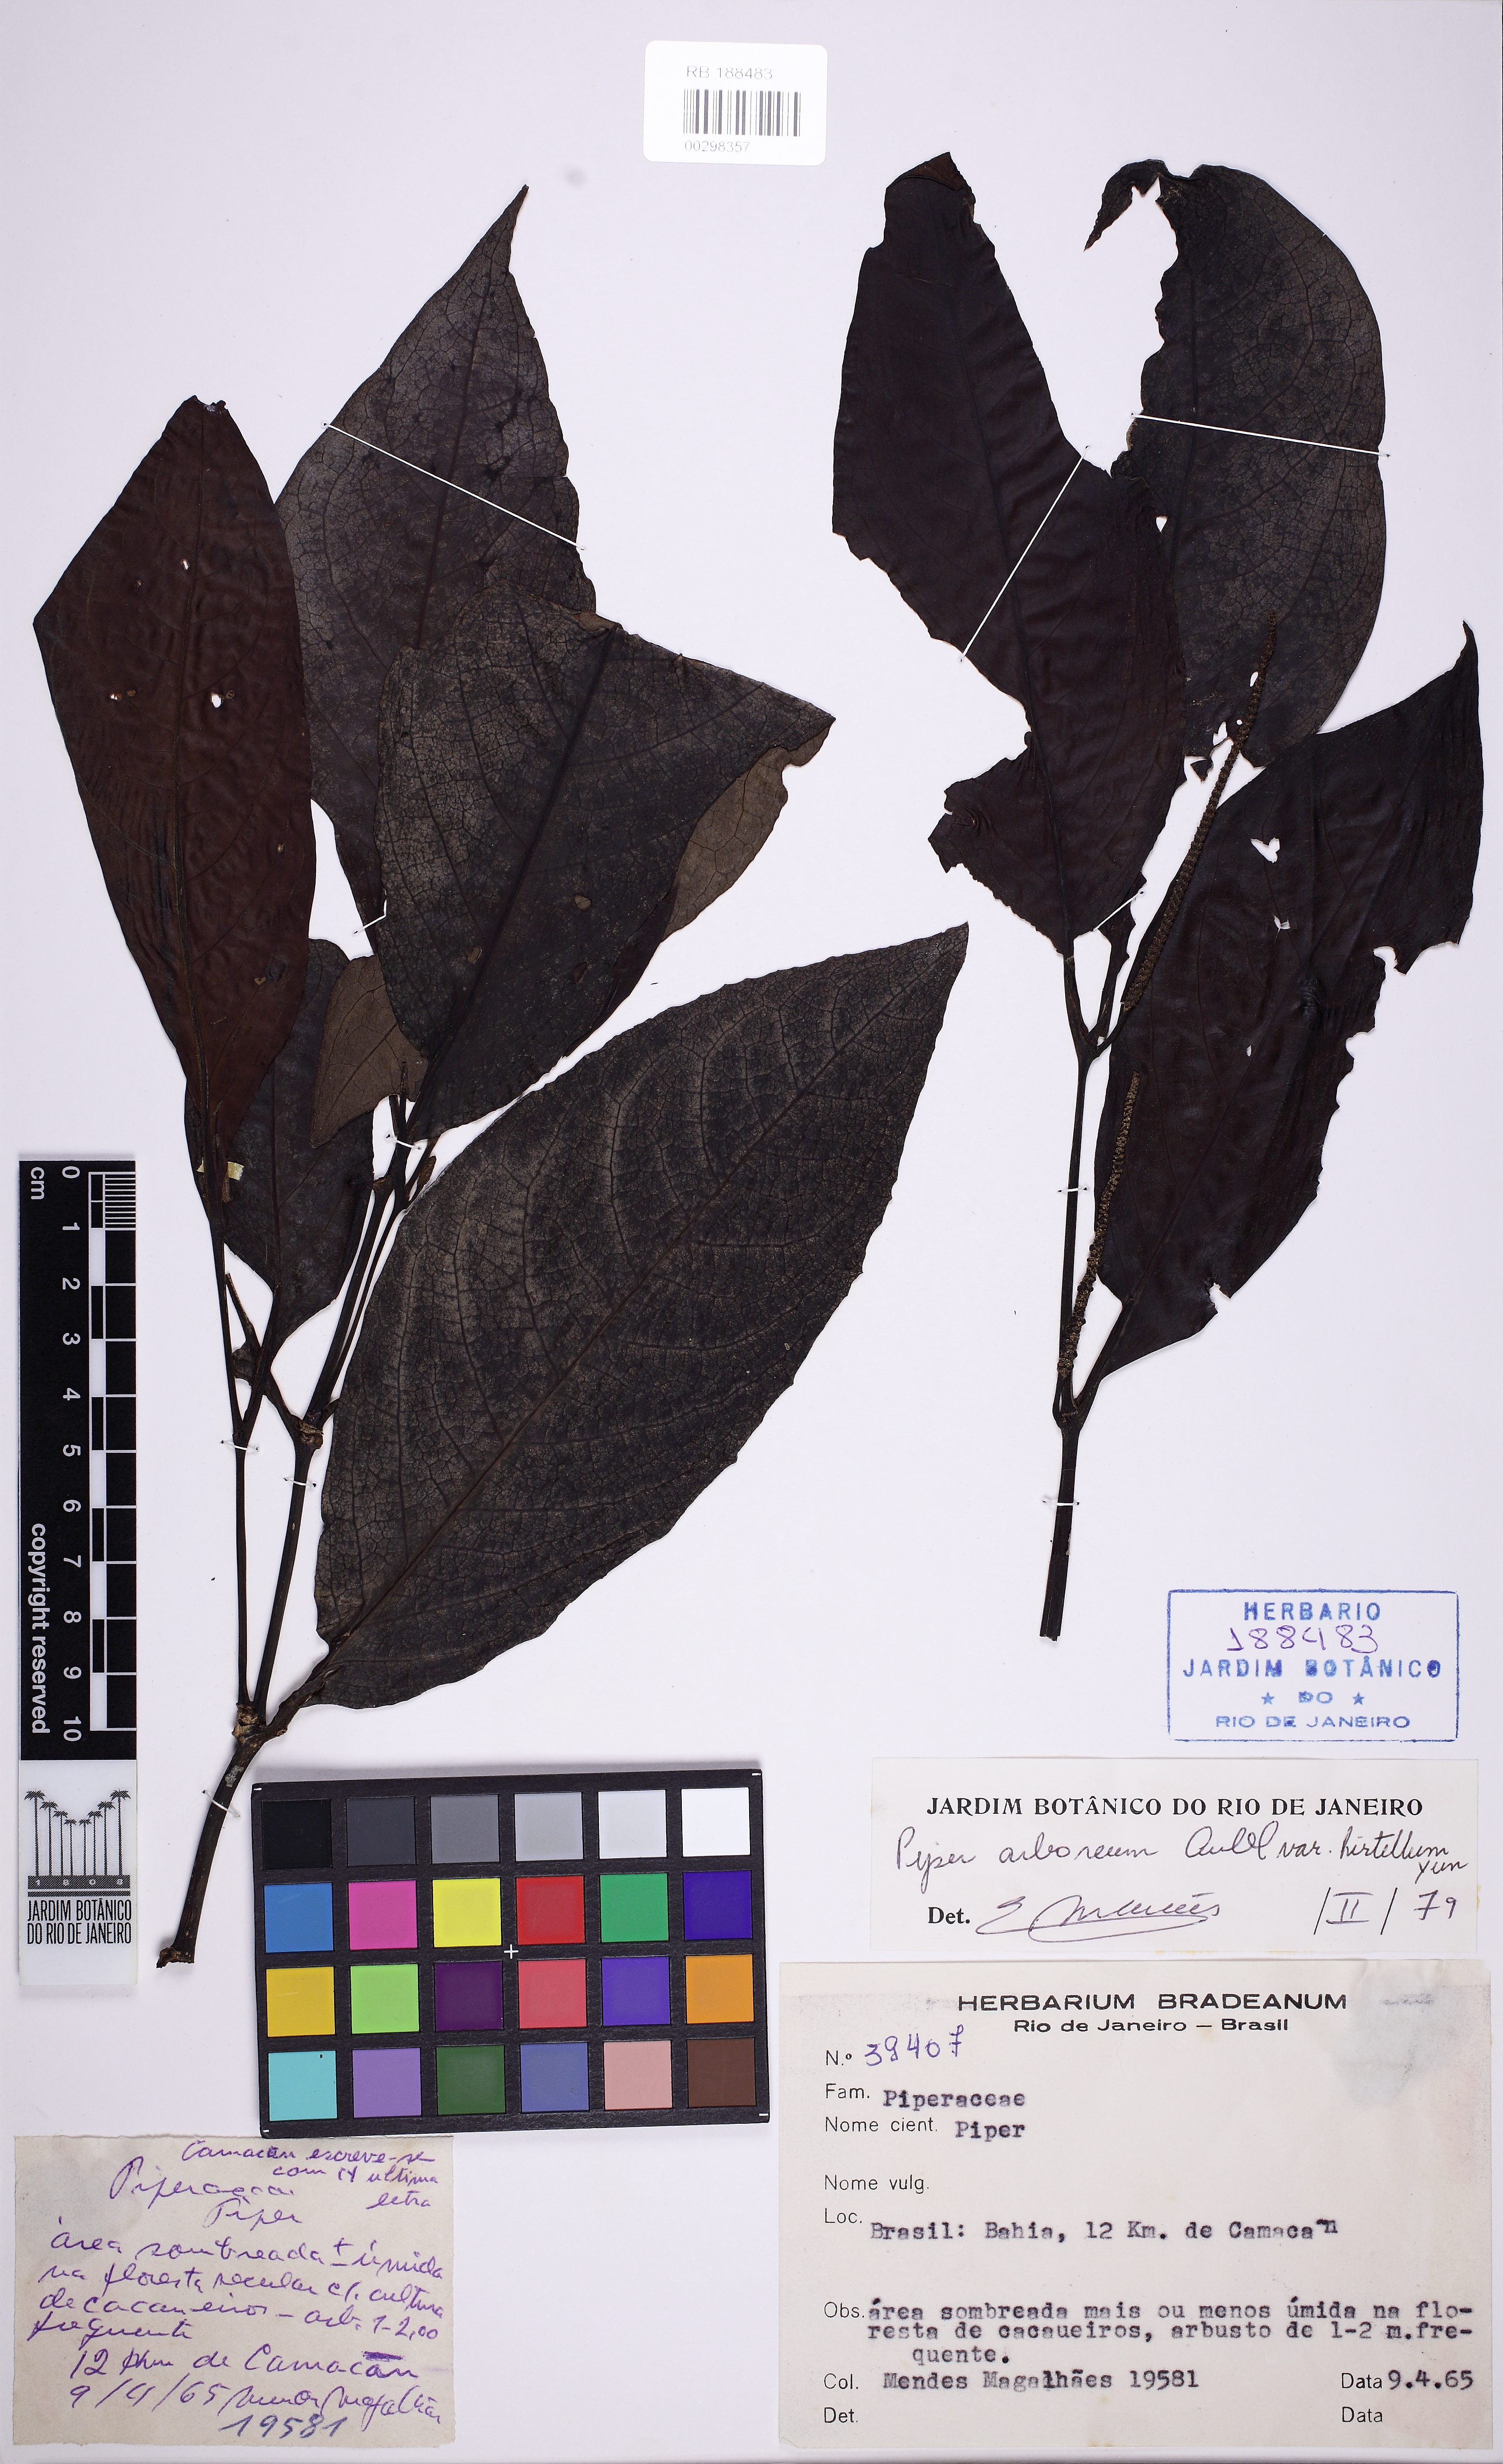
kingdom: Plantae
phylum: Tracheophyta
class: Magnoliopsida
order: Piperales
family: Piperaceae
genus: Piper
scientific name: Piper arboreum
